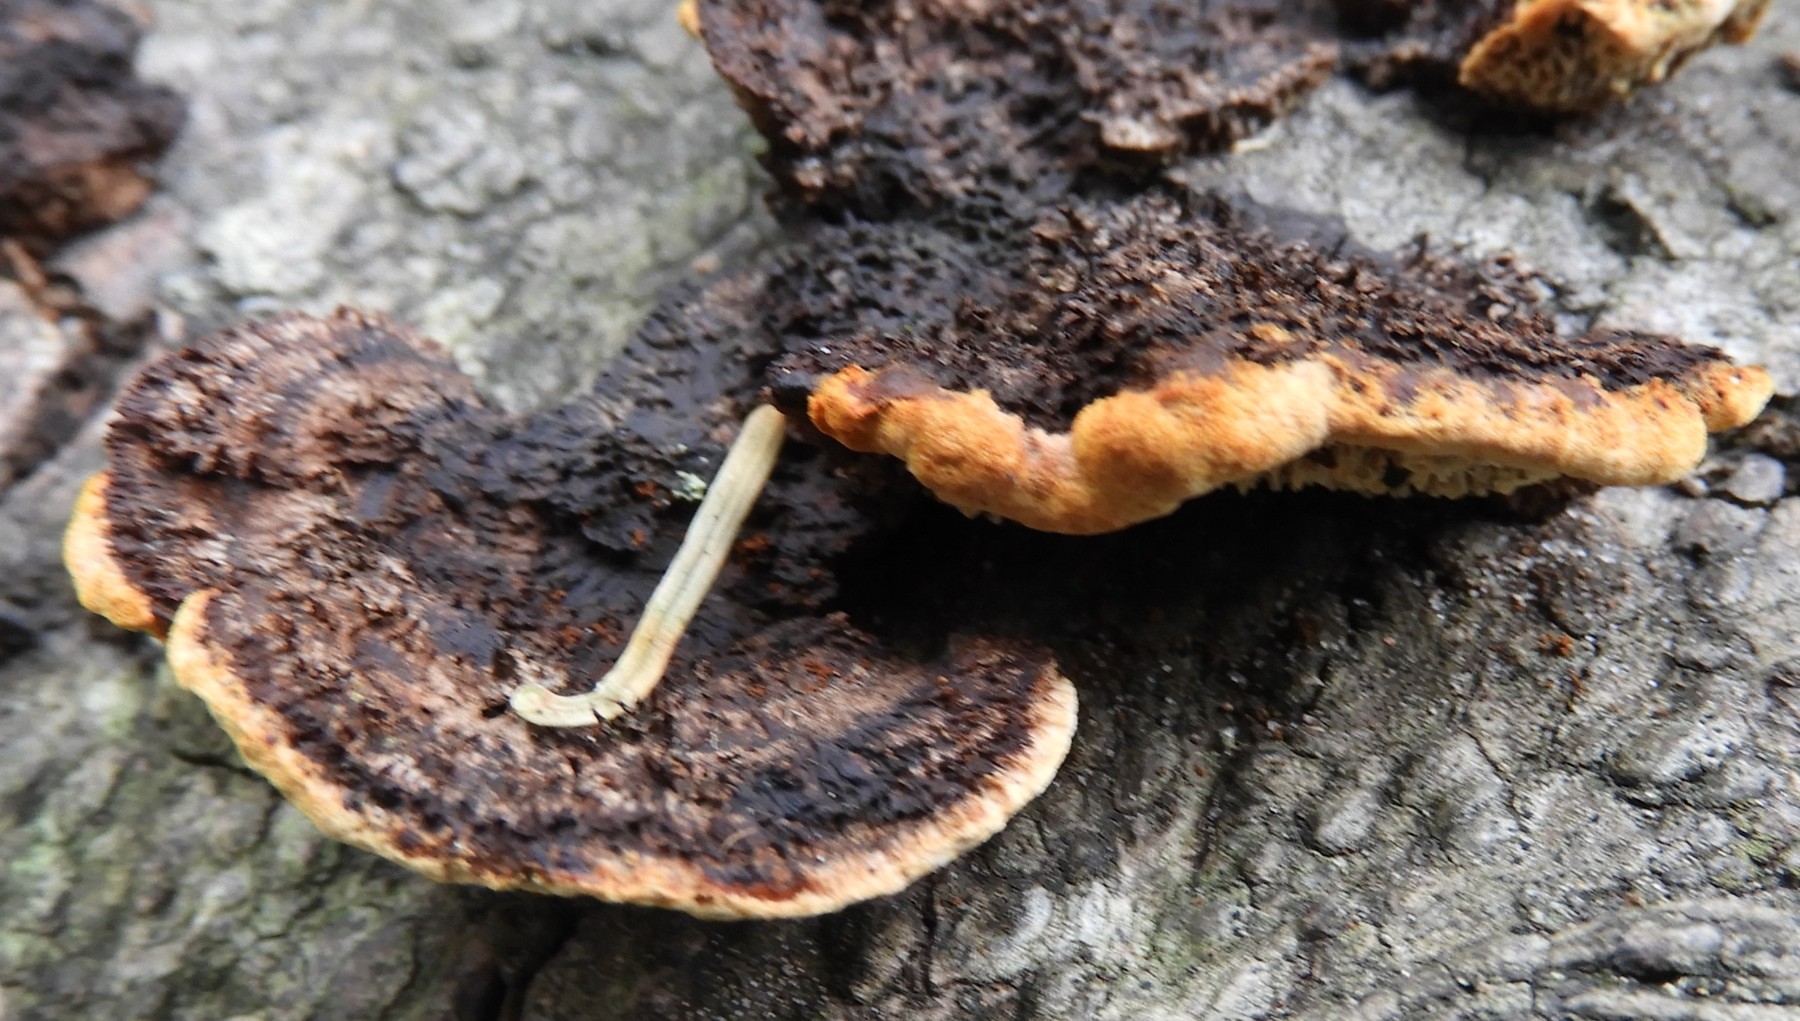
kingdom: Fungi
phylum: Basidiomycota
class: Agaricomycetes
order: Gloeophyllales
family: Gloeophyllaceae
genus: Gloeophyllum
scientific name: Gloeophyllum sepiarium
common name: fyrre-korkhat
